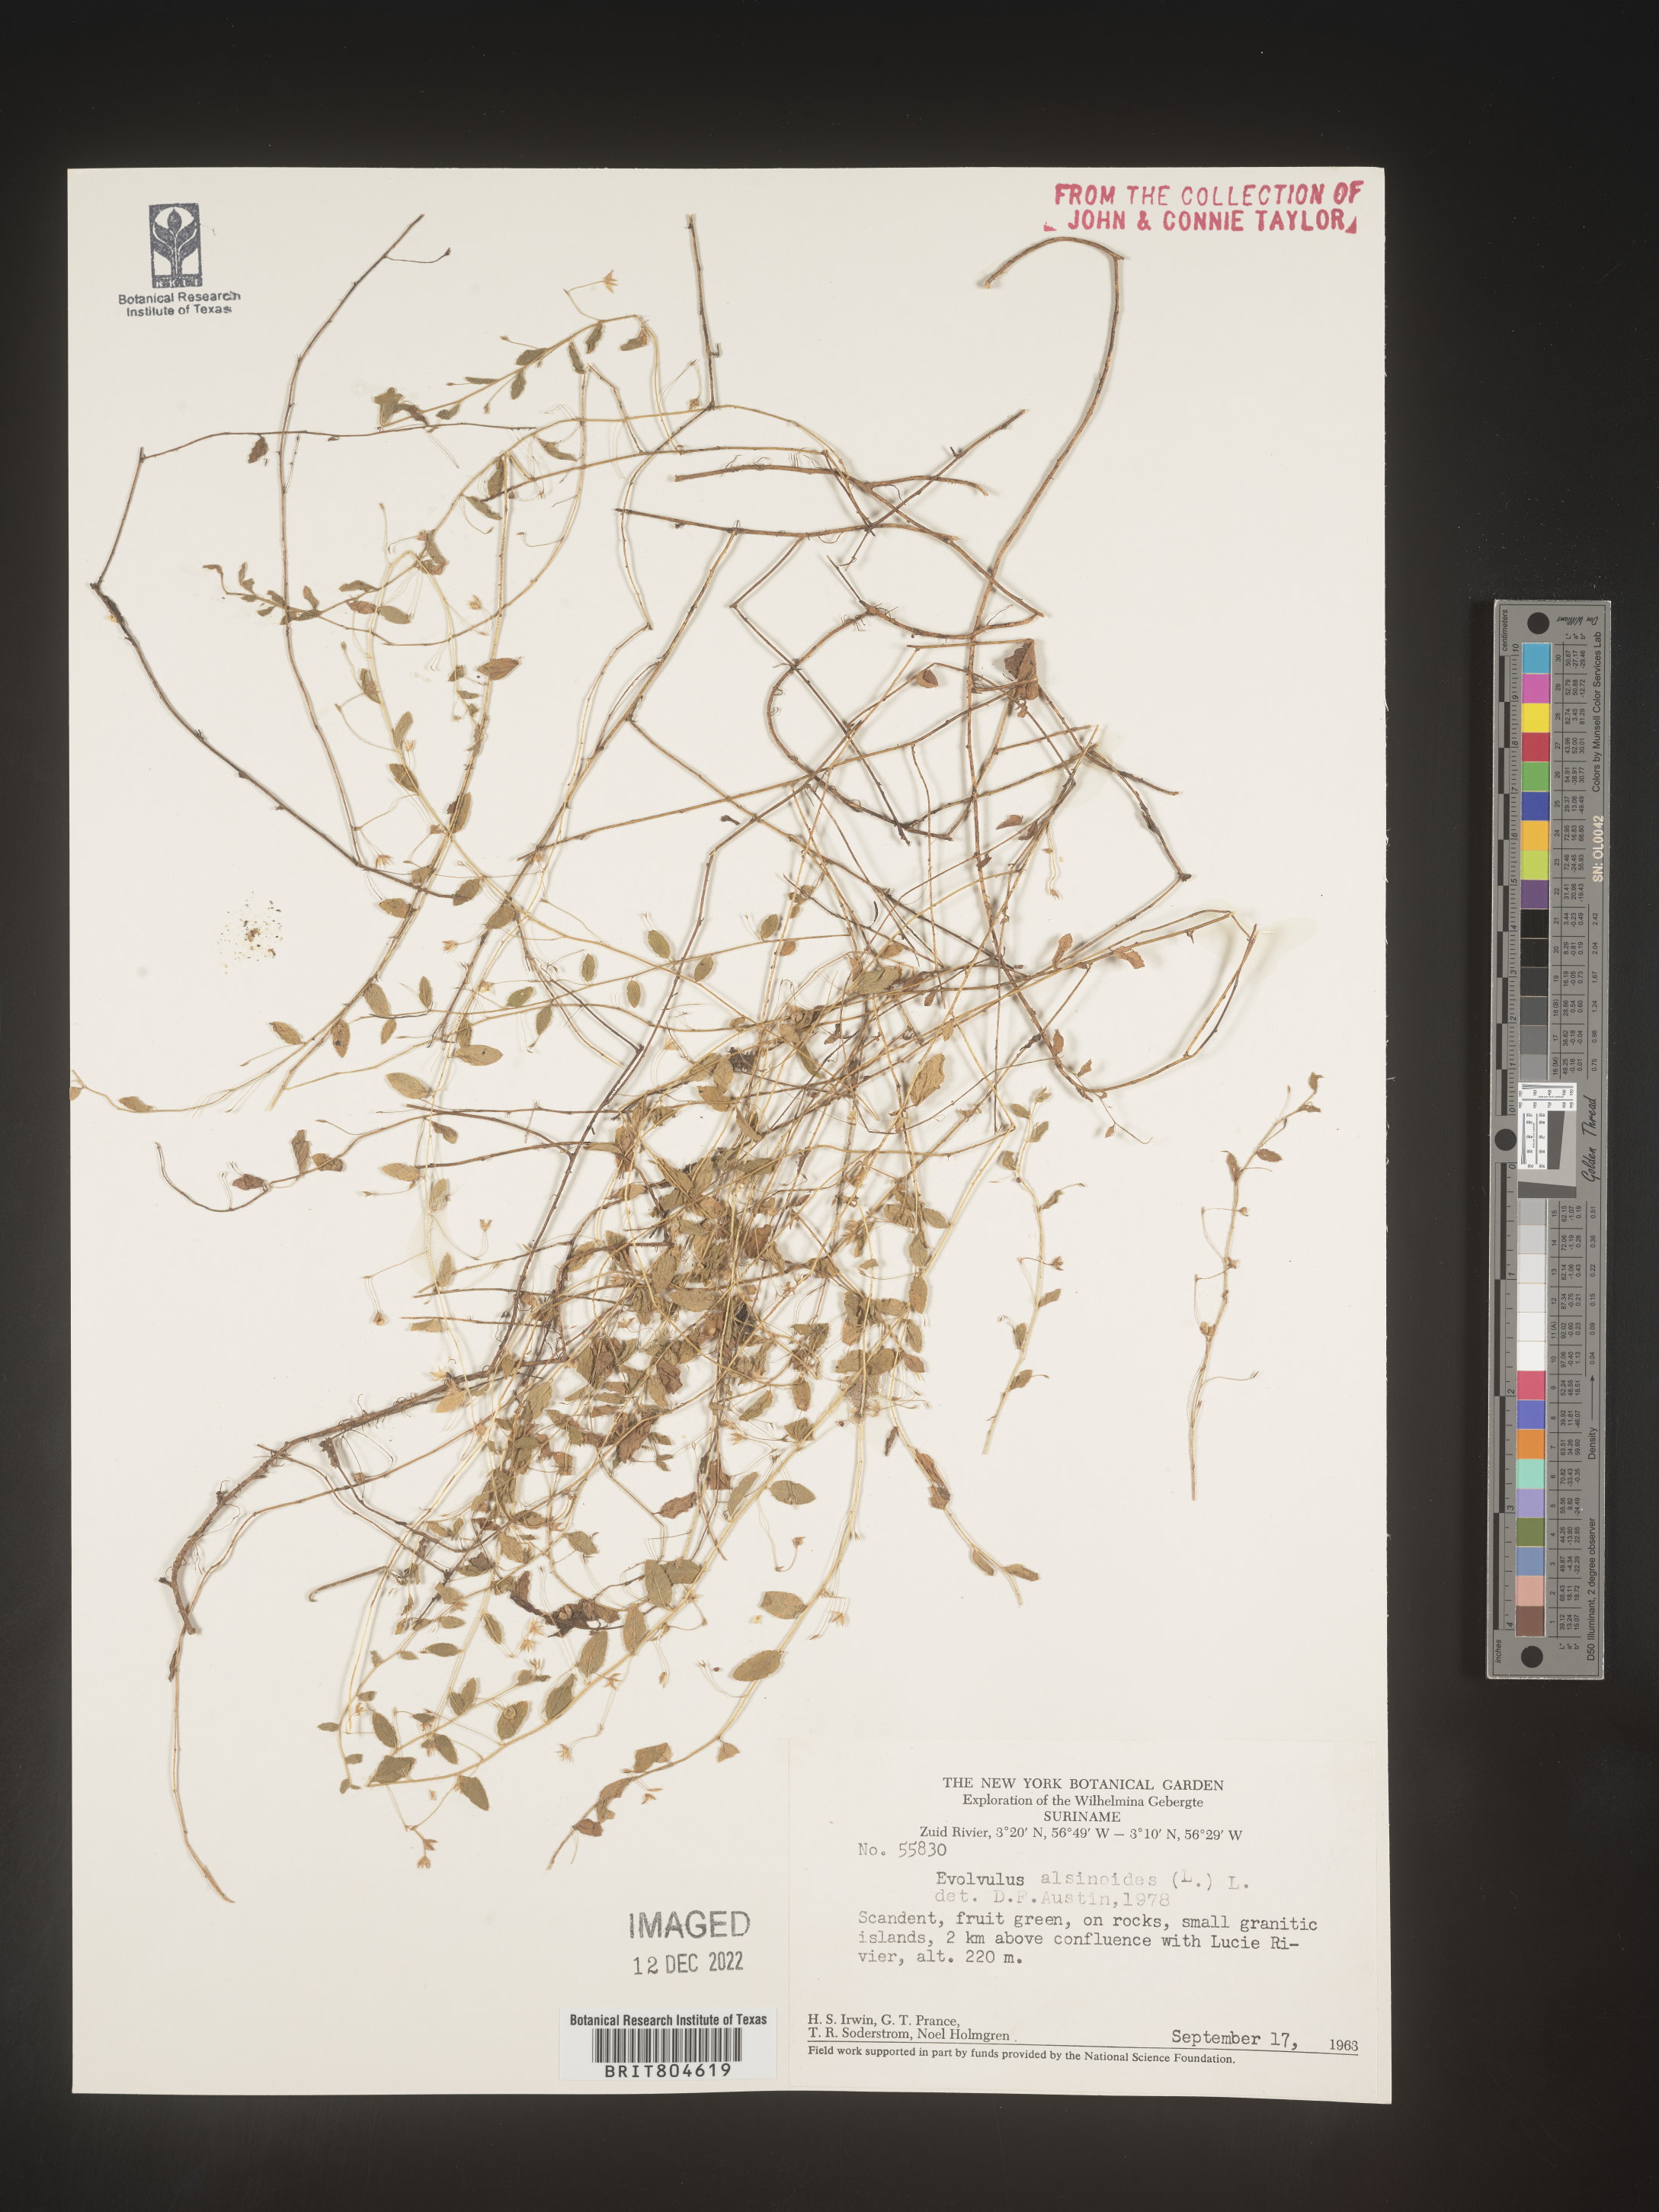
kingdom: Plantae
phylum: Tracheophyta
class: Magnoliopsida
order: Solanales
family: Convolvulaceae
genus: Evolvulus
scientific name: Evolvulus
